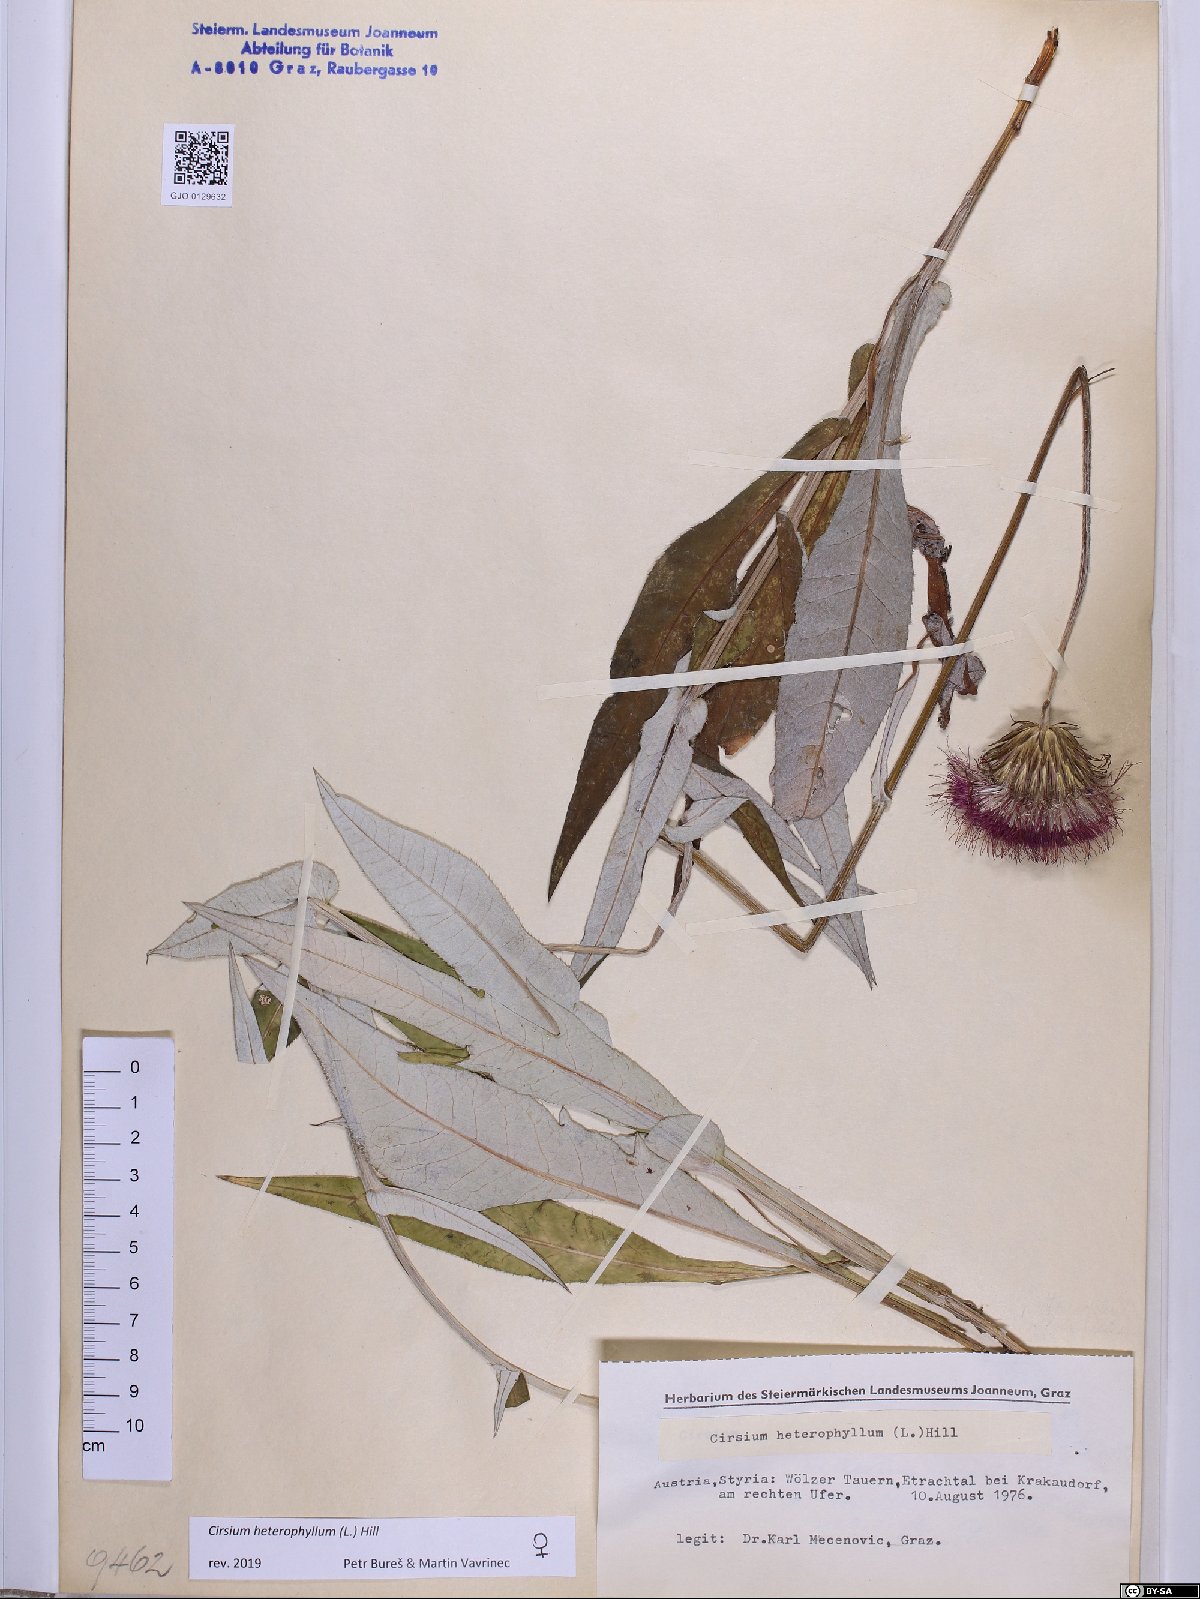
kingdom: Plantae
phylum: Tracheophyta
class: Magnoliopsida
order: Asterales
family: Asteraceae
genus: Cirsium
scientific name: Cirsium heterophyllum
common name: Melancholy thistle
